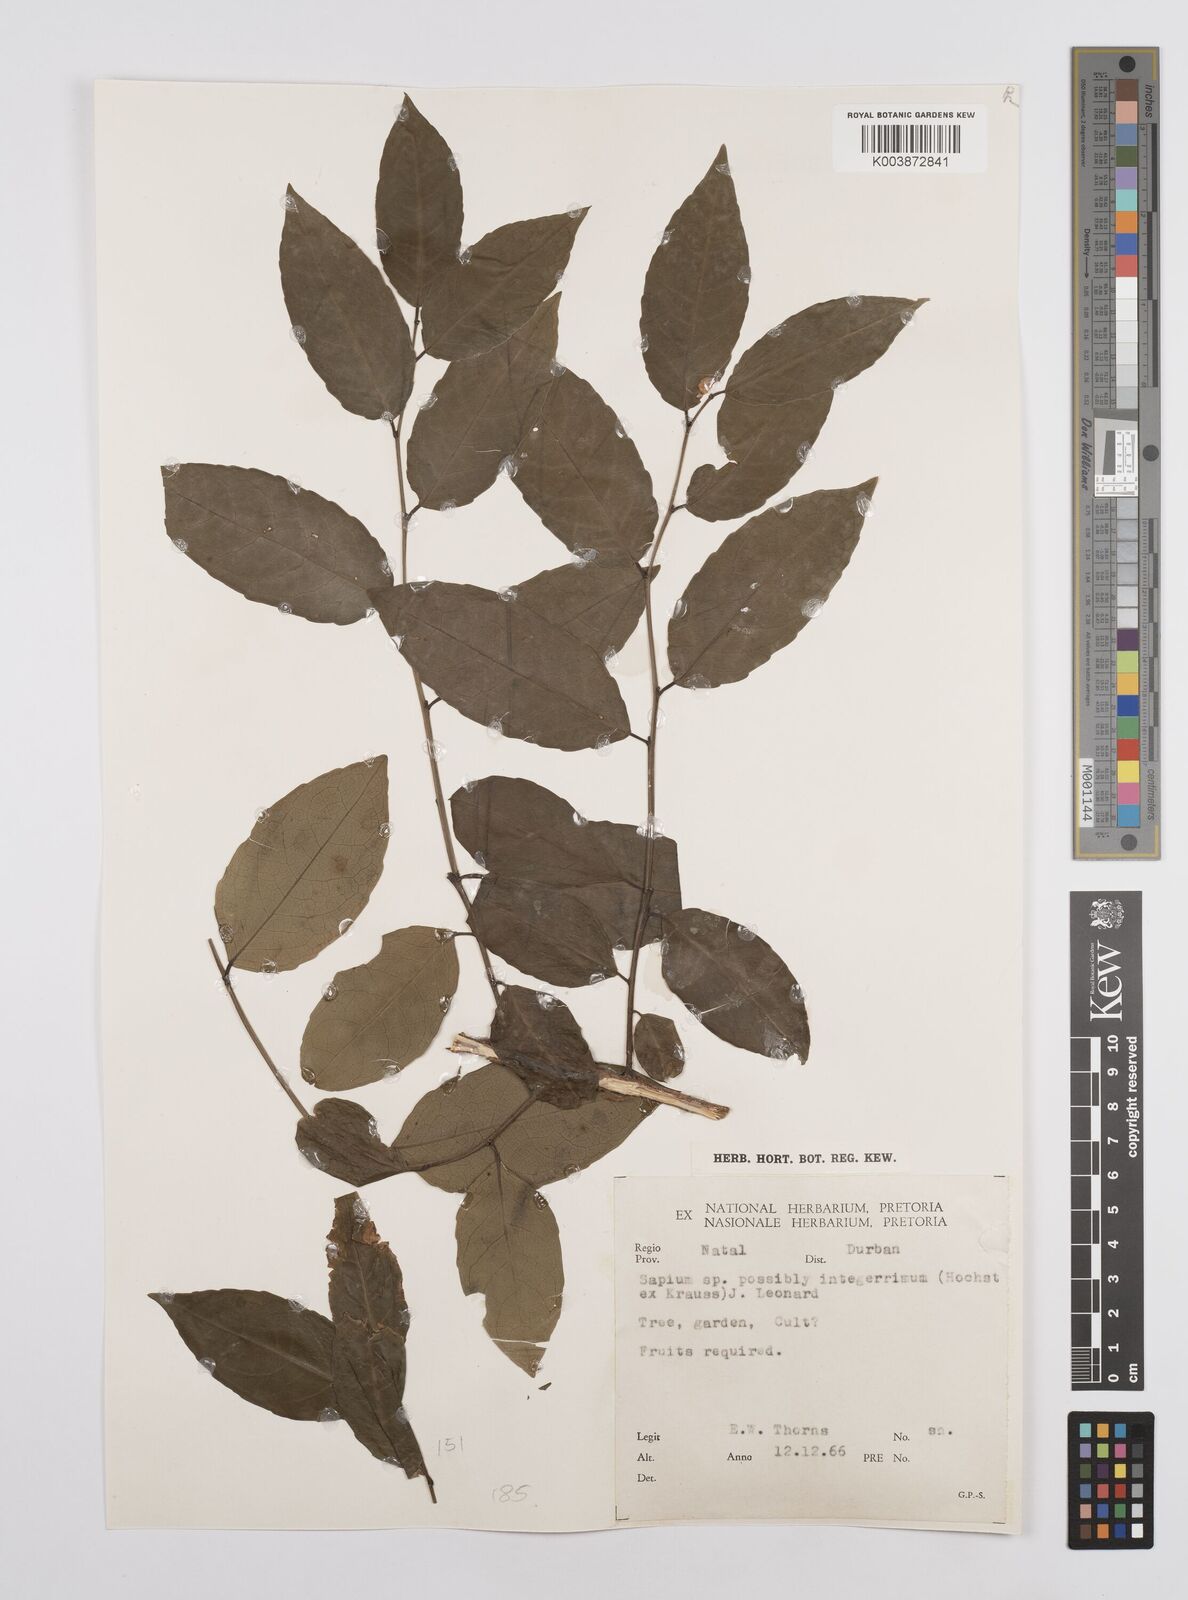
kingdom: Plantae
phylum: Tracheophyta
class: Magnoliopsida
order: Malpighiales
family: Euphorbiaceae
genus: Sclerocroton
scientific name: Sclerocroton integerrimus
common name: Duiker berry
